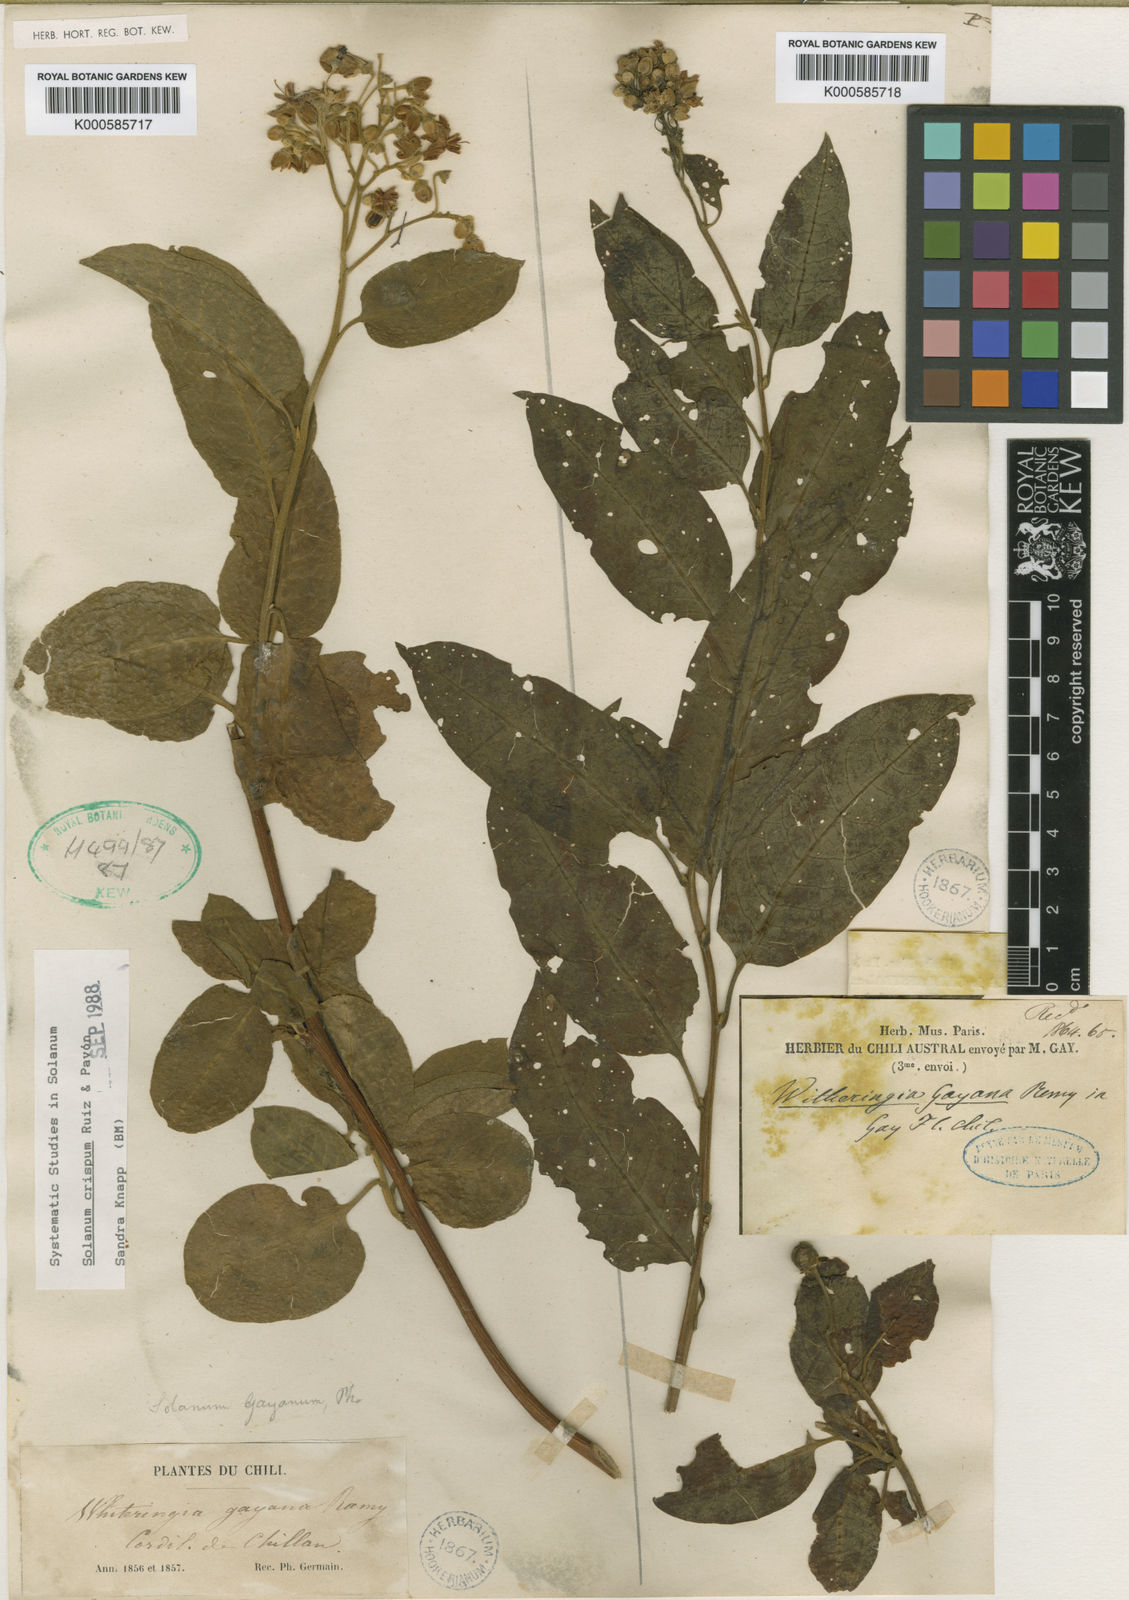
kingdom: Plantae
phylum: Tracheophyta
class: Magnoliopsida
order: Solanales
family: Solanaceae
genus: Solanum
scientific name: Solanum crispum
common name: Chilean nightshade
